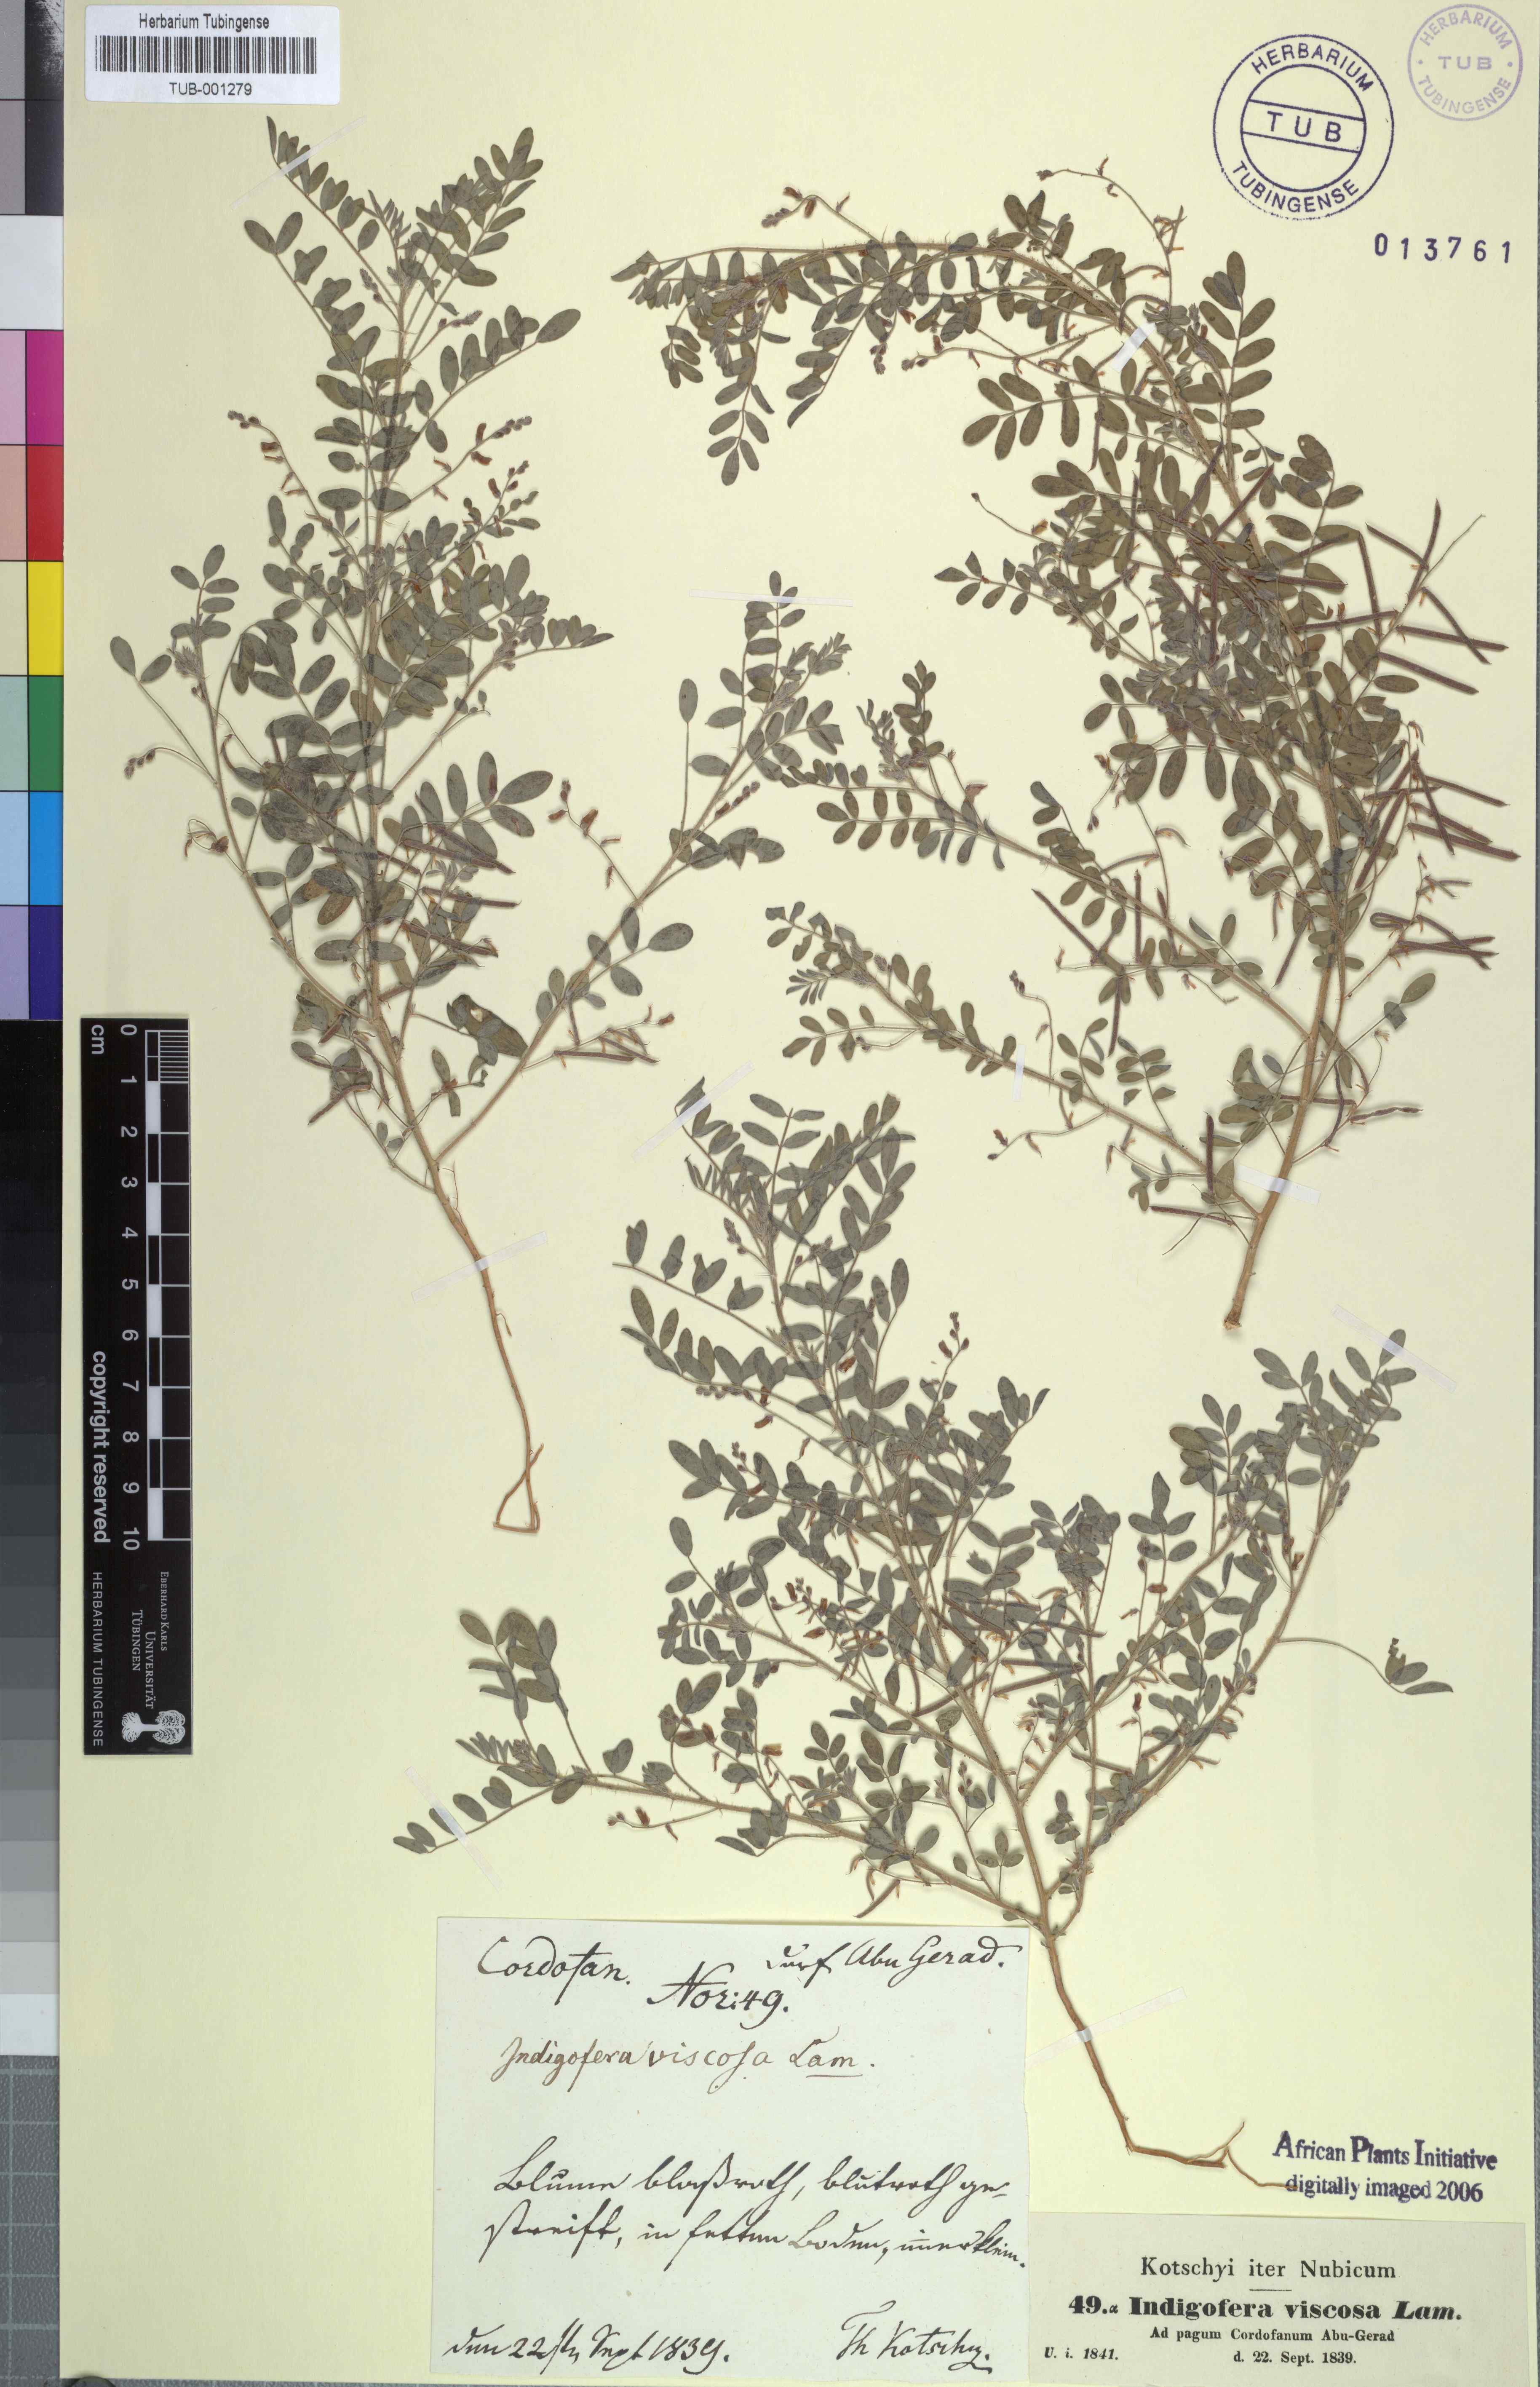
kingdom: Plantae
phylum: Tracheophyta
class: Magnoliopsida
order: Fabales
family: Fabaceae
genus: Indigofera
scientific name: Indigofera colutea
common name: Rusty indigo
